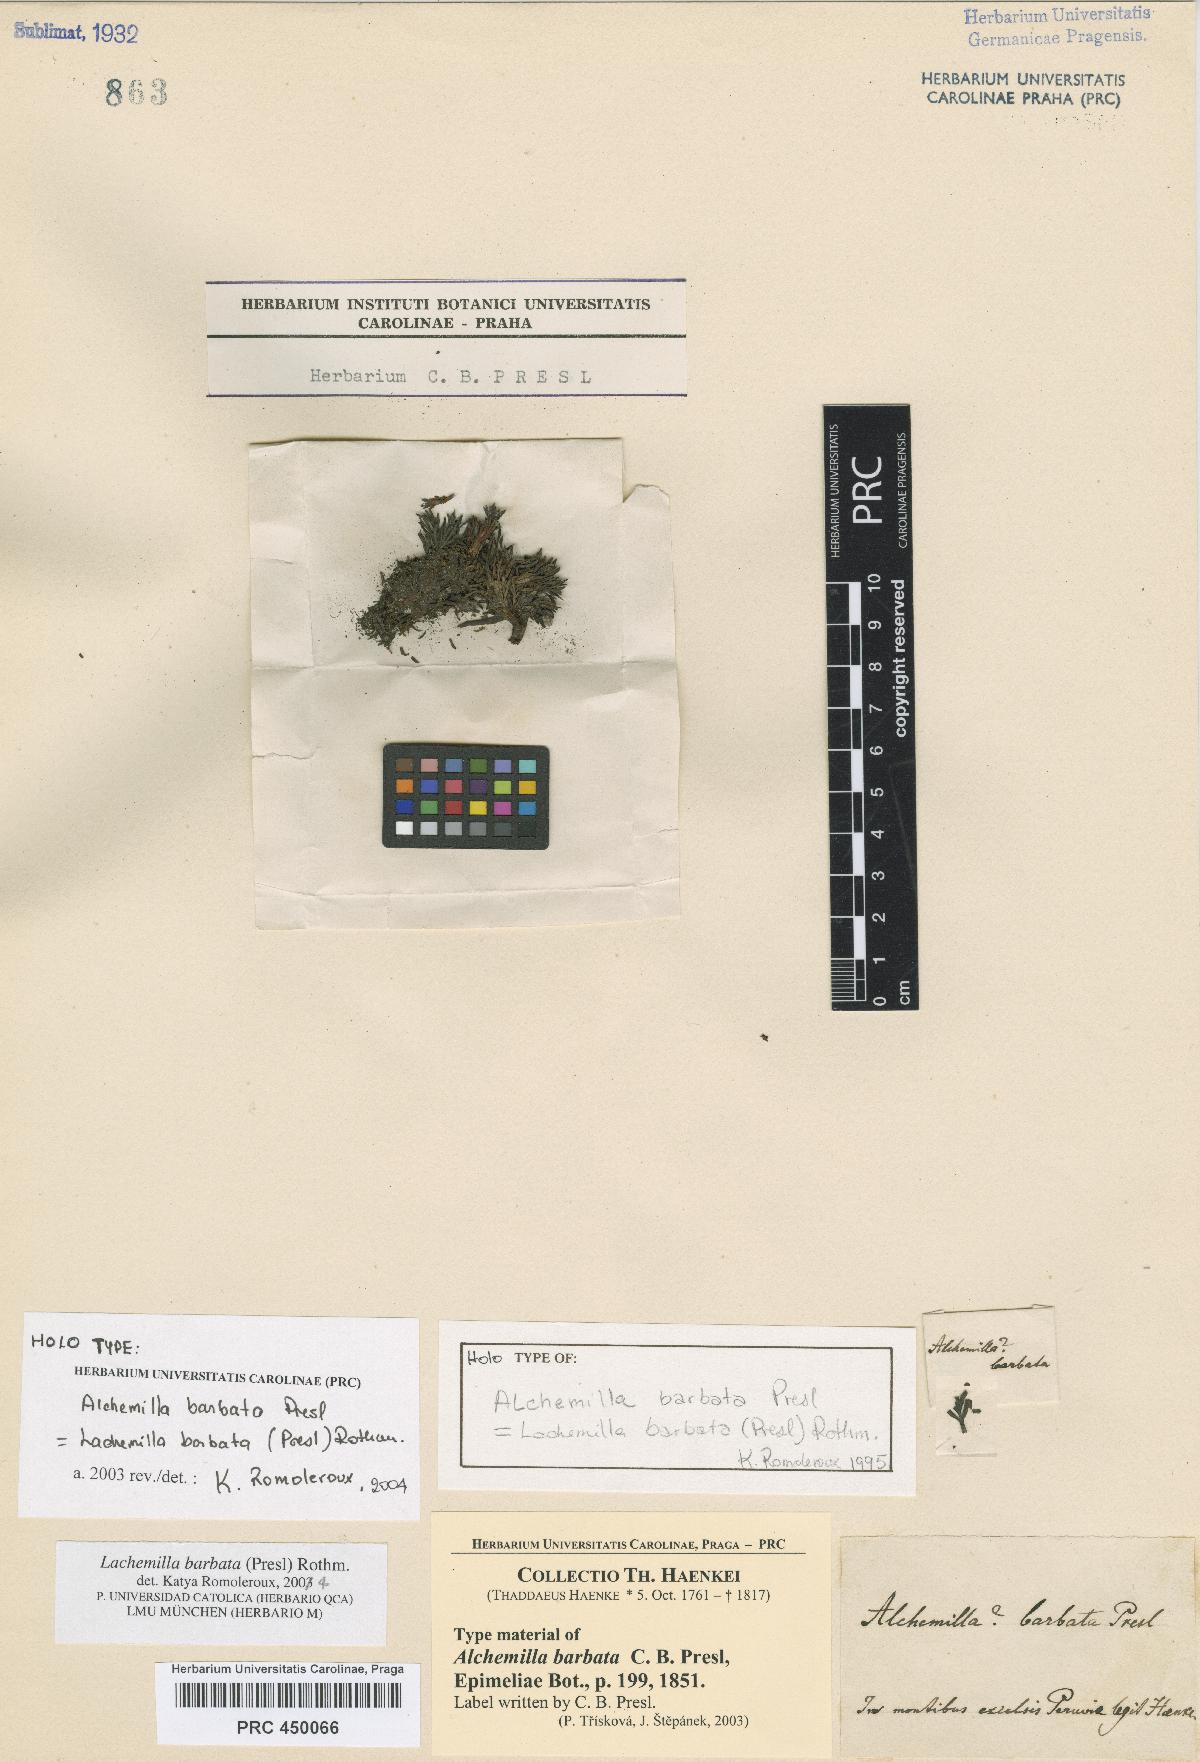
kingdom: Plantae
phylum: Tracheophyta
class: Magnoliopsida
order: Rosales
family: Rosaceae
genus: Lachemilla
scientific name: Lachemilla barbata
